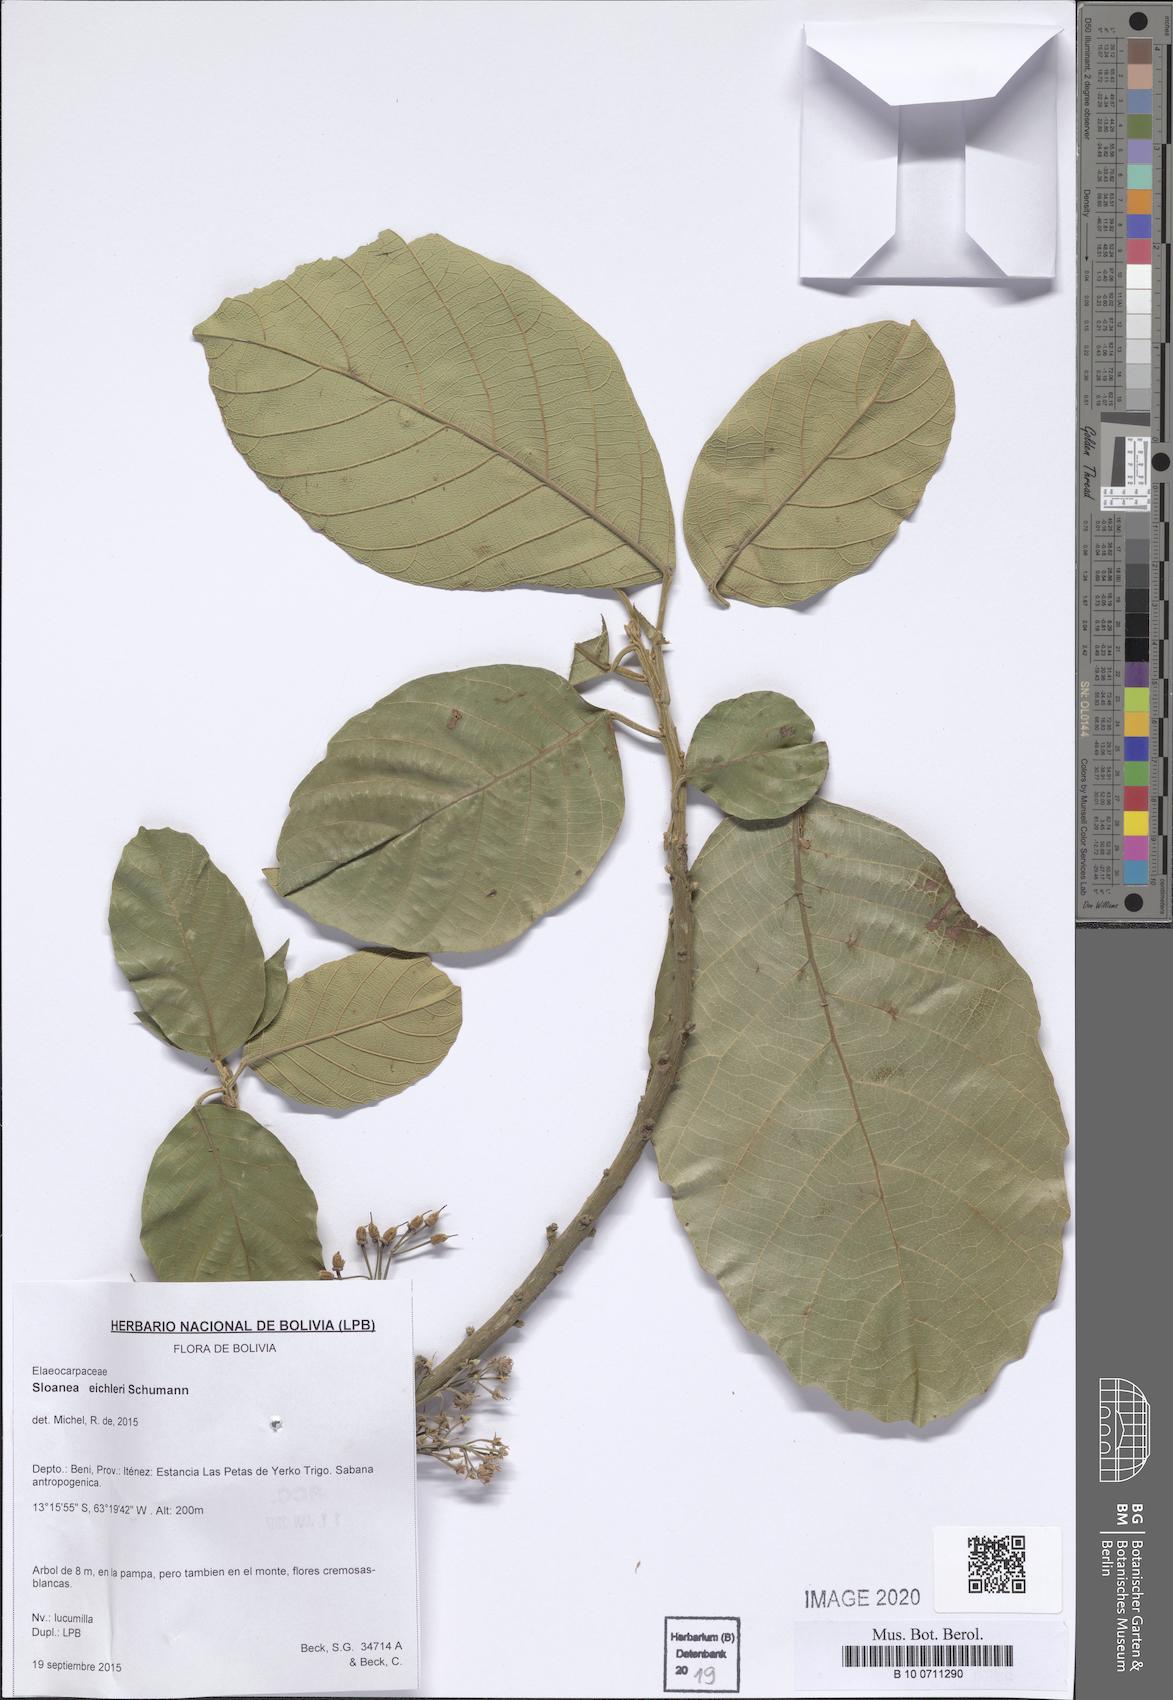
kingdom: Plantae
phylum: Tracheophyta
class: Magnoliopsida
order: Oxalidales
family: Elaeocarpaceae
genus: Sloanea
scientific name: Sloanea eichleri
